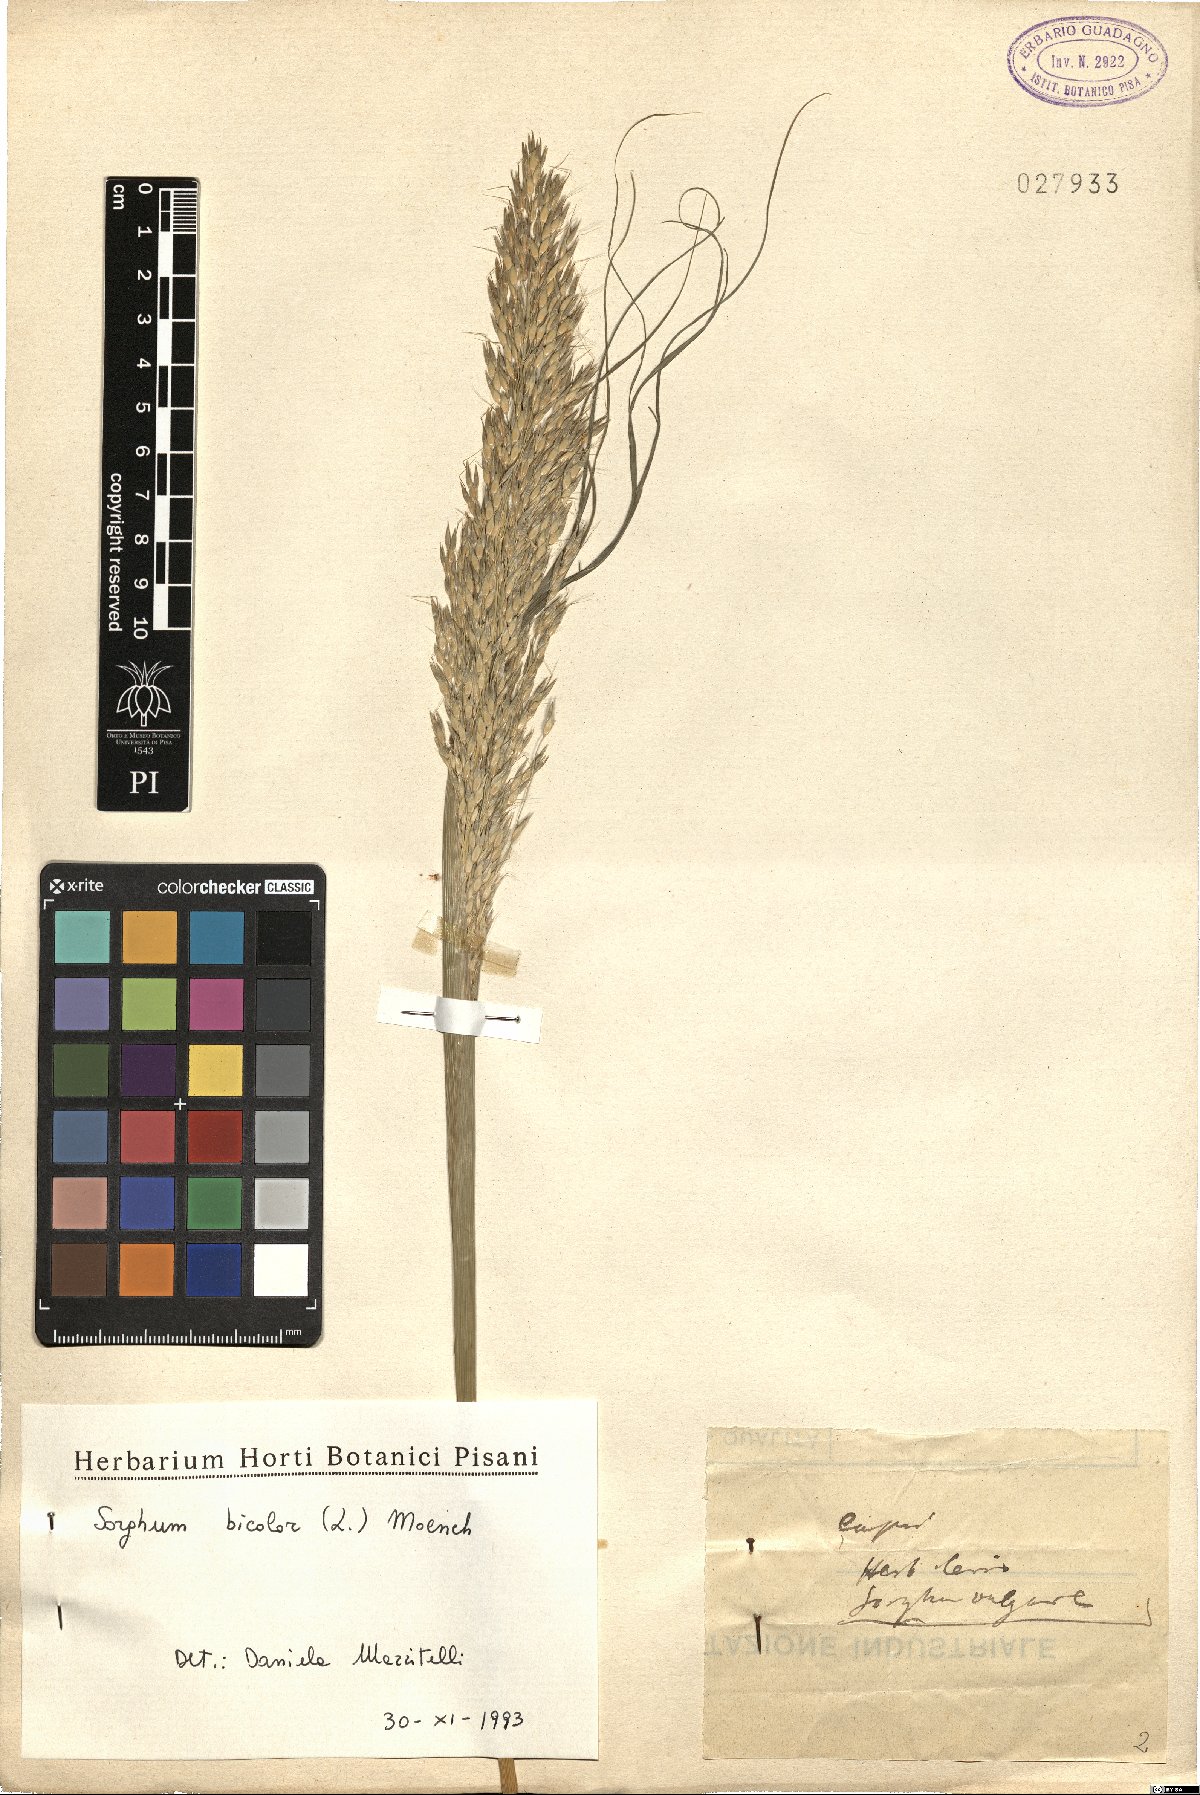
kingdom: Plantae
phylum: Tracheophyta
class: Liliopsida
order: Poales
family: Poaceae
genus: Sorghum
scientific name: Sorghum bicolor
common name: Sorghum
